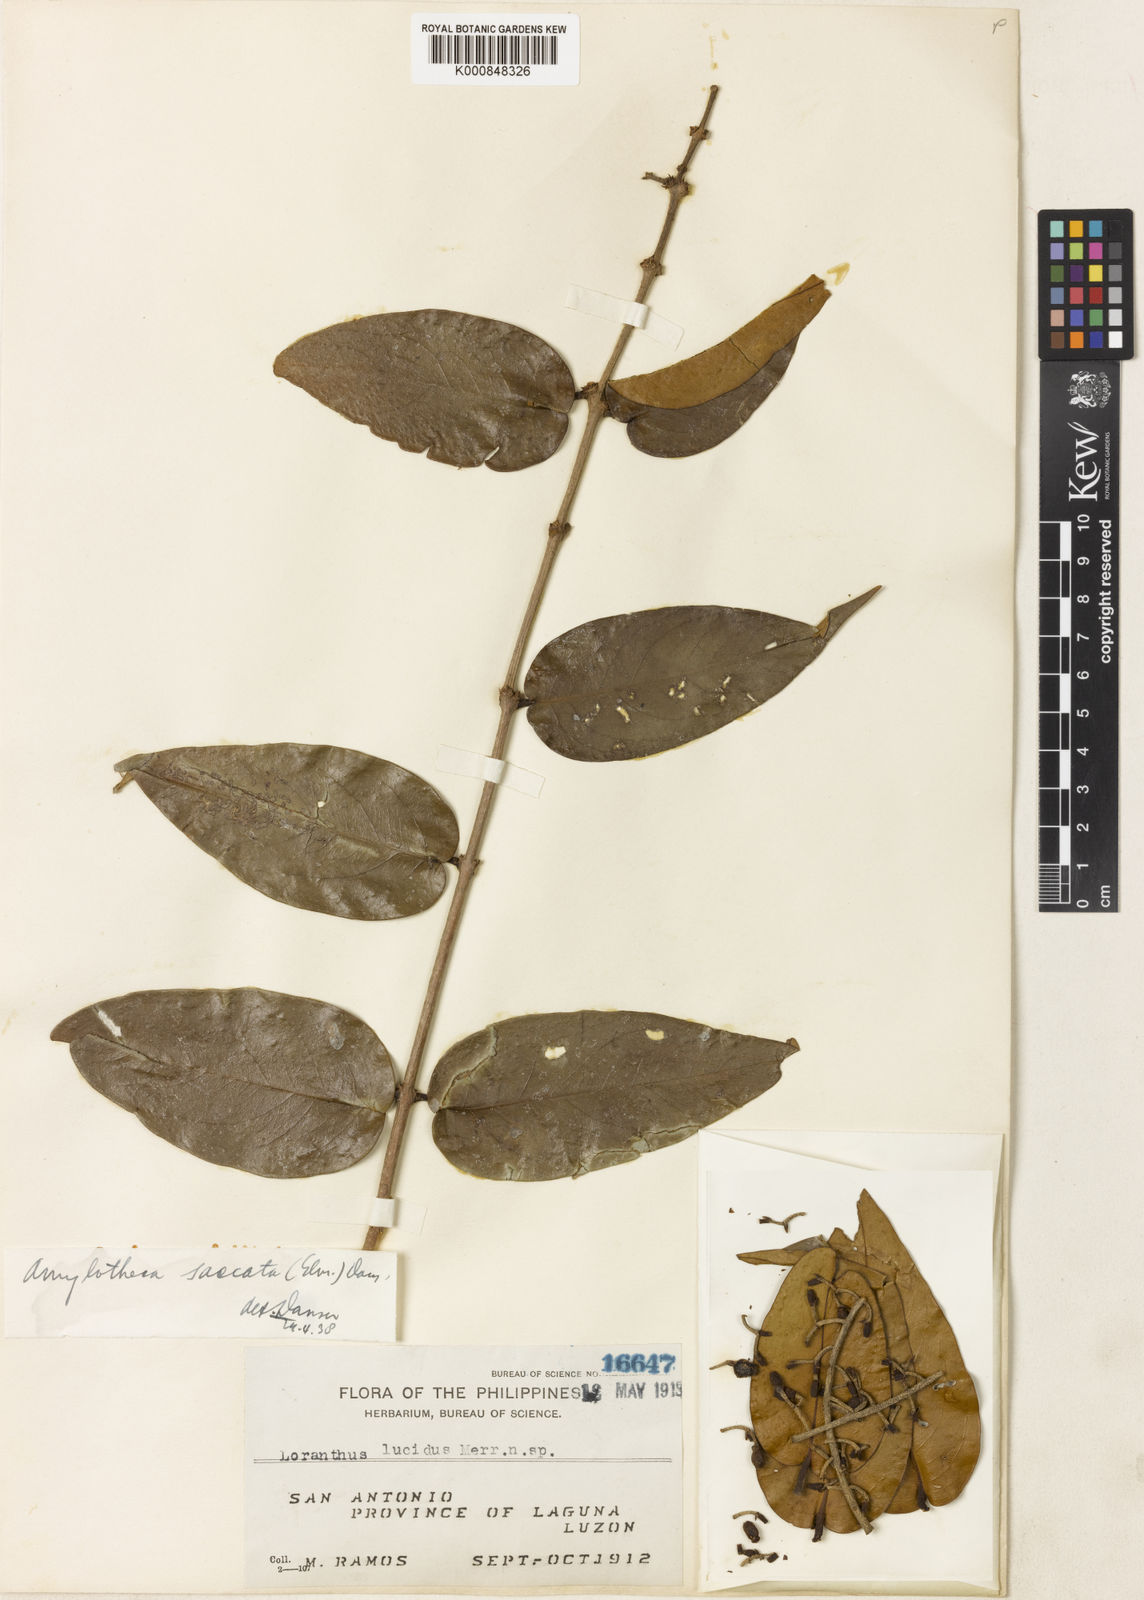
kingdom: Plantae
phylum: Tracheophyta
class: Magnoliopsida
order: Santalales
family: Loranthaceae
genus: Decaisnina
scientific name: Decaisnina aherniana
